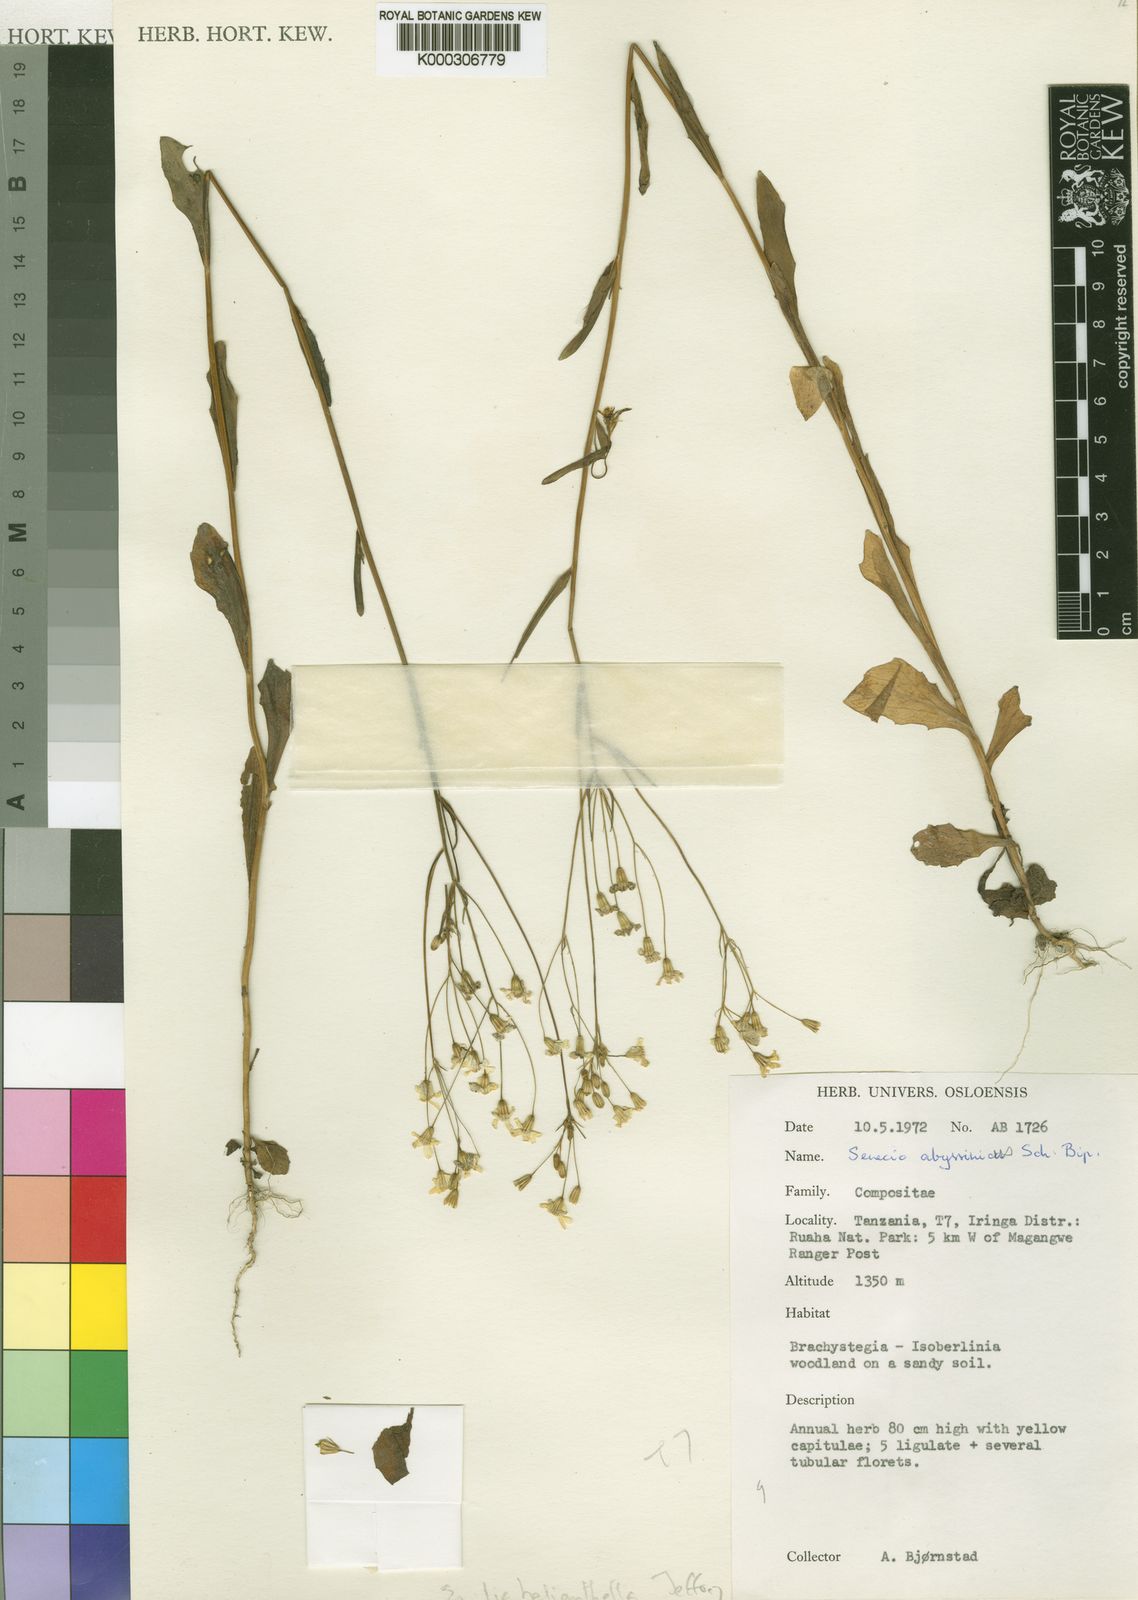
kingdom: Plantae
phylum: Tracheophyta
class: Magnoliopsida
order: Asterales
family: Asteraceae
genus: Emilia
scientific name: Emilia helianthella
